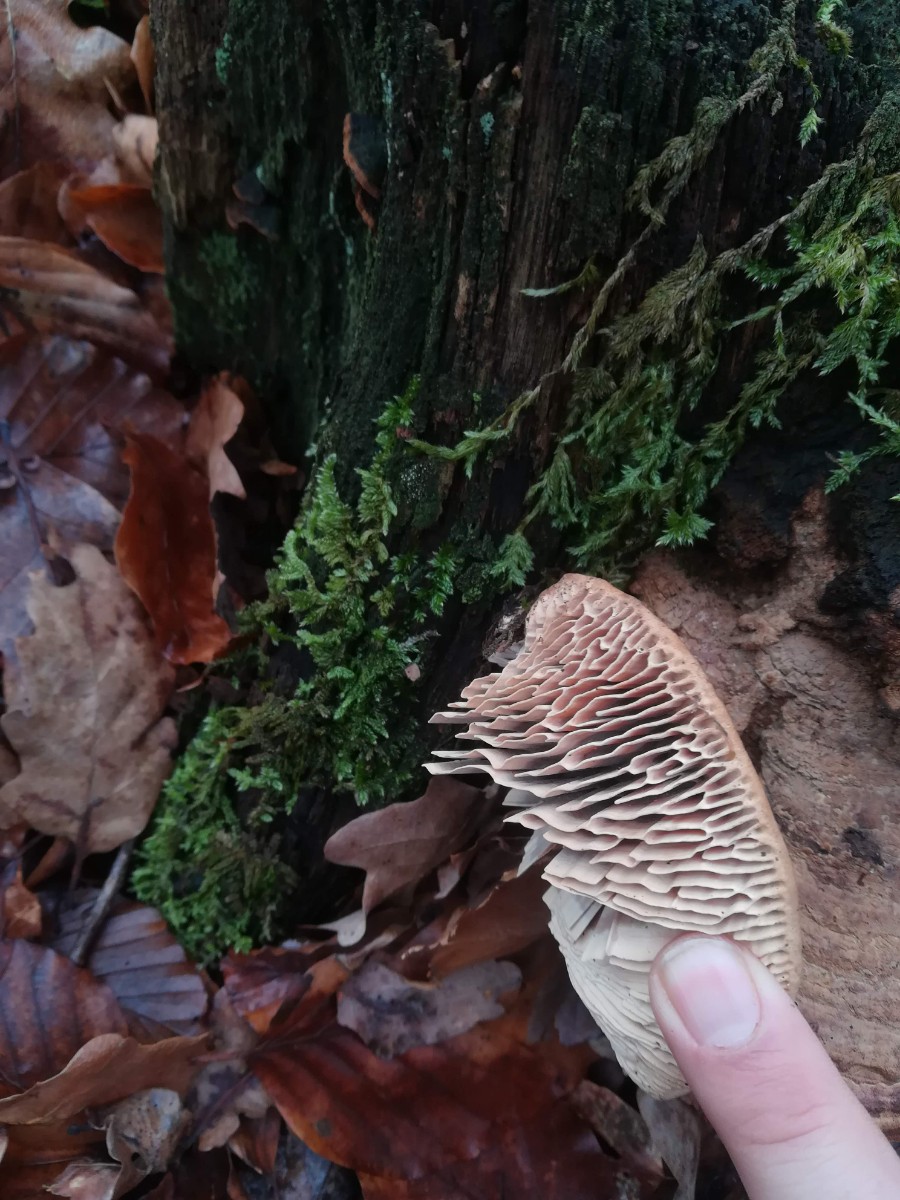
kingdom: Fungi
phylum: Basidiomycota
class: Agaricomycetes
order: Polyporales
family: Fomitopsidaceae
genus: Daedalea
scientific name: Daedalea quercina
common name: ege-labyrintsvamp
